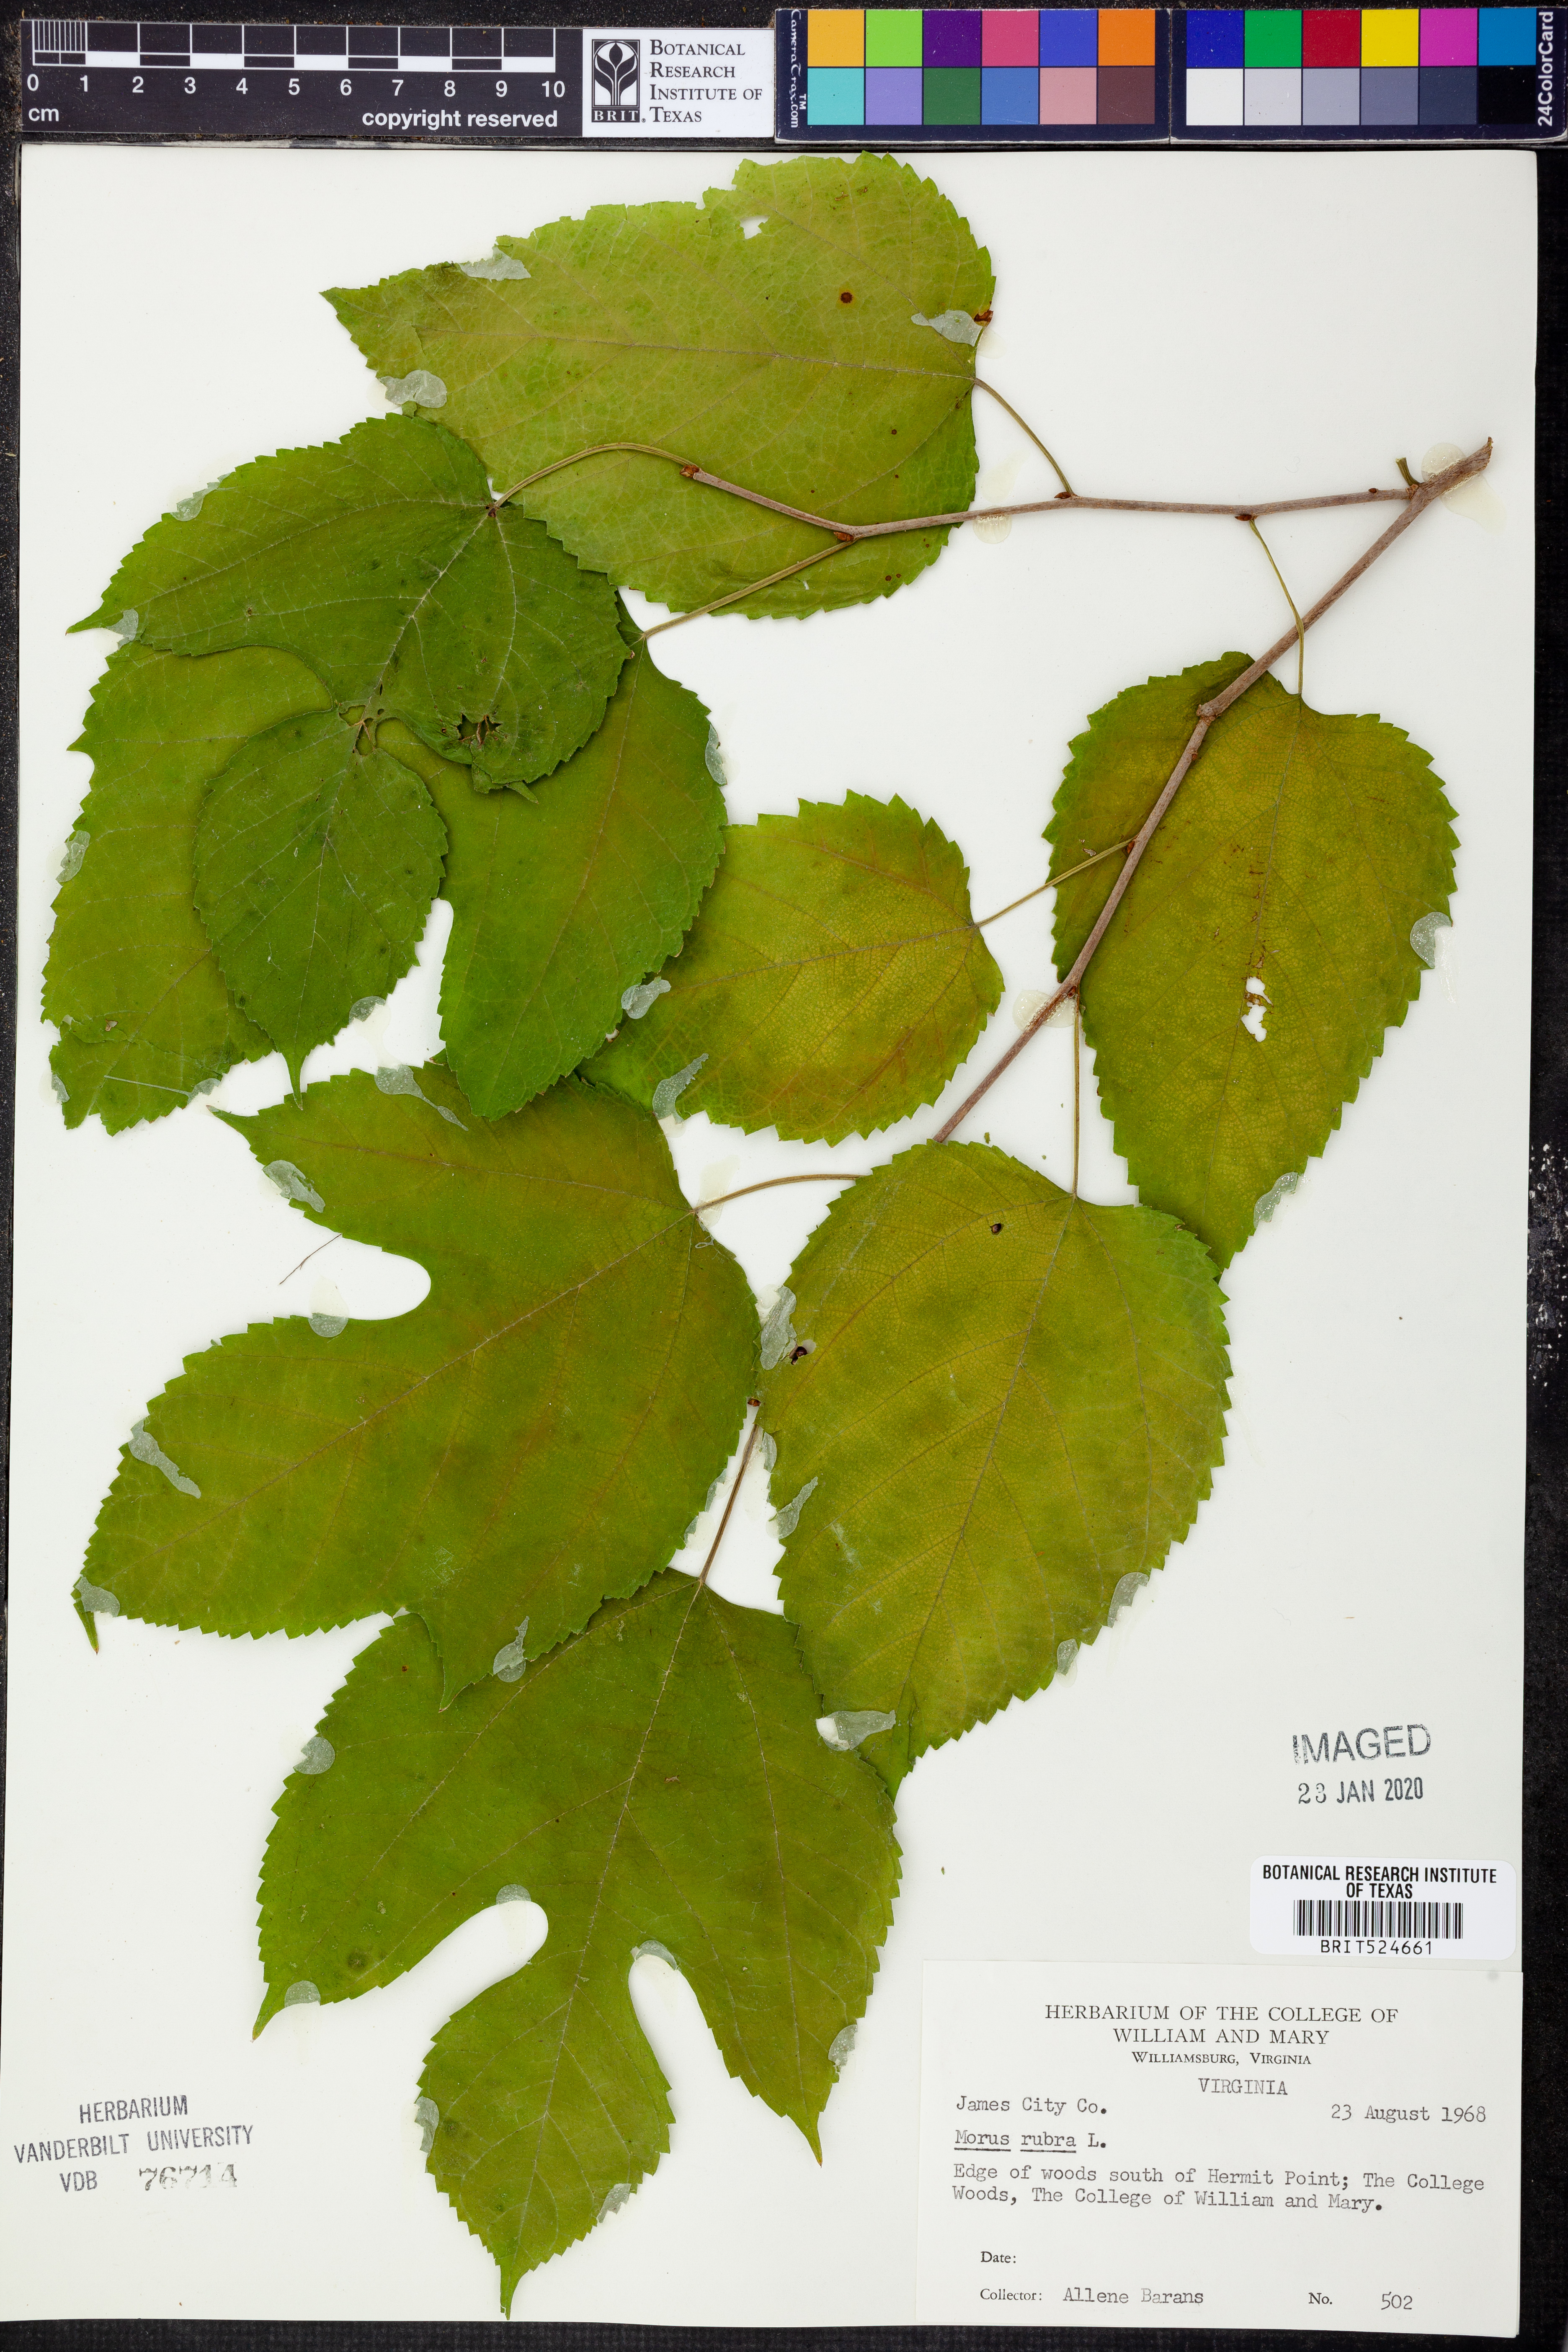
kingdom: Plantae
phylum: Tracheophyta
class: Magnoliopsida
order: Rosales
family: Moraceae
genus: Morus
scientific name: Morus rubra
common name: Red mulberry
